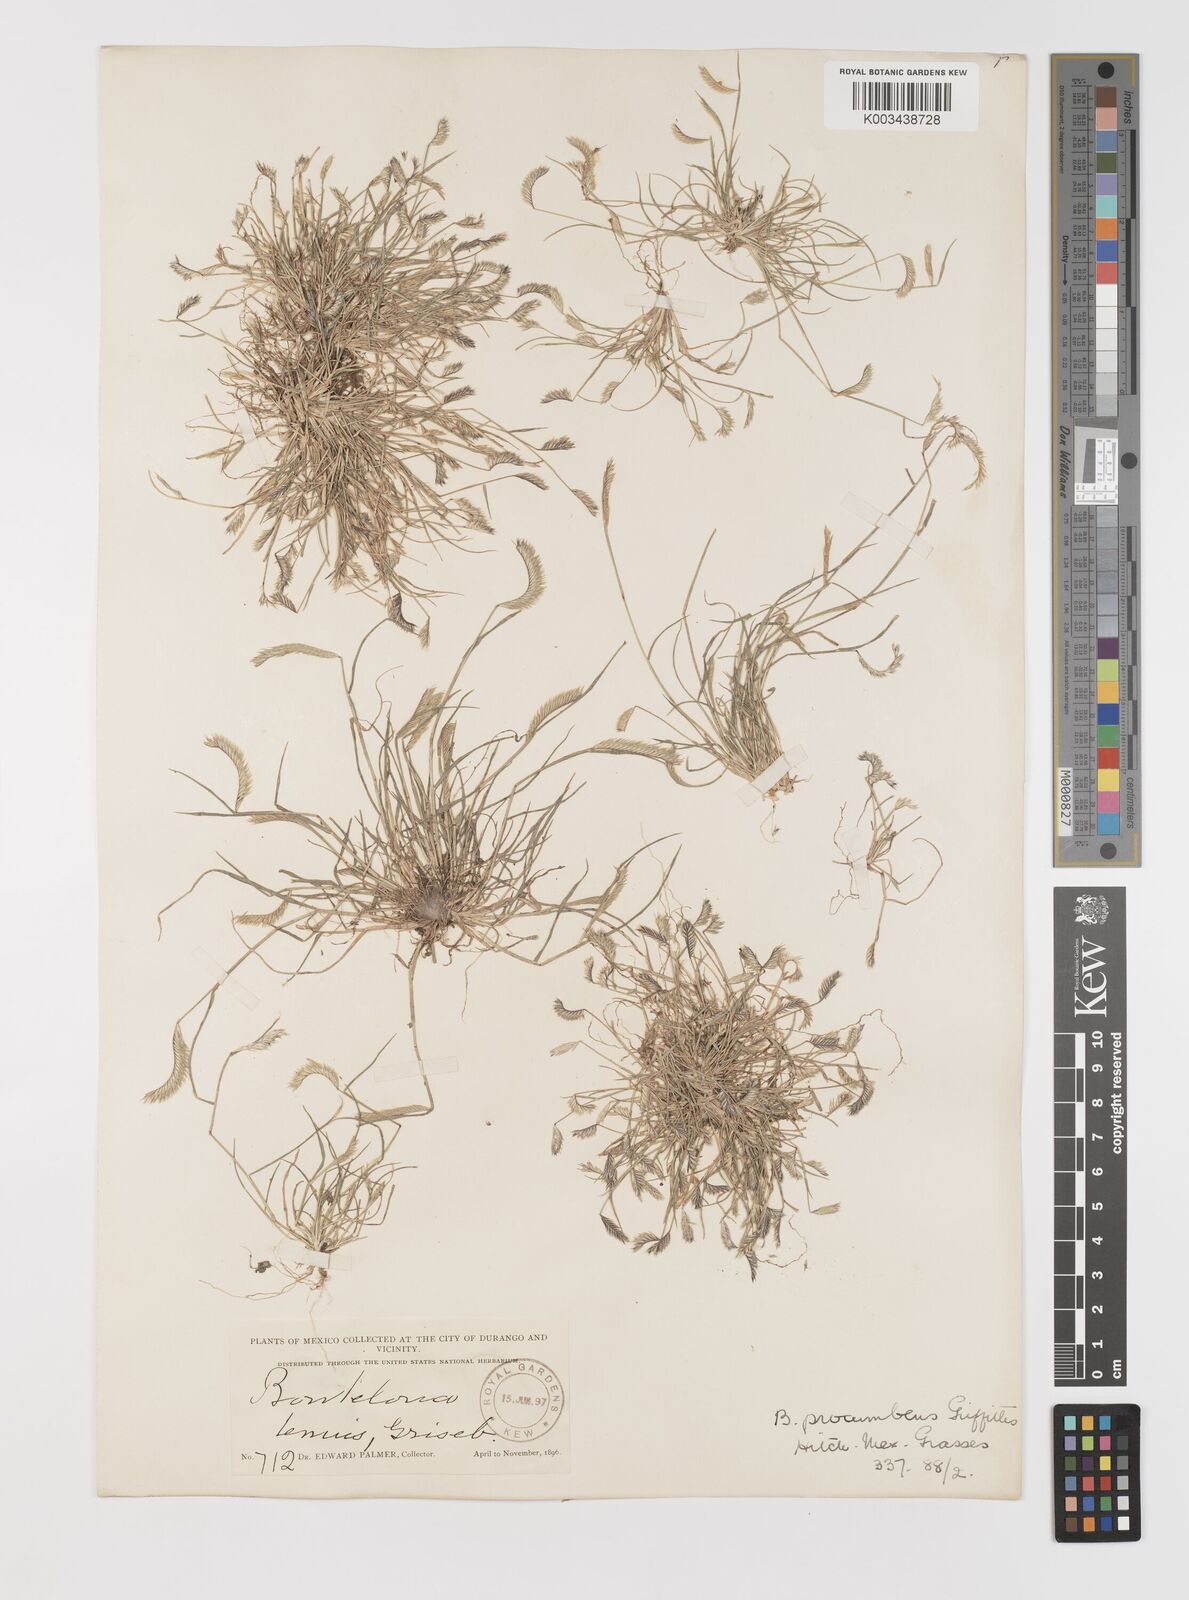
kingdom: Plantae
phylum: Tracheophyta
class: Liliopsida
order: Poales
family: Poaceae
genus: Bouteloua
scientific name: Bouteloua simplex
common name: Mat grama
